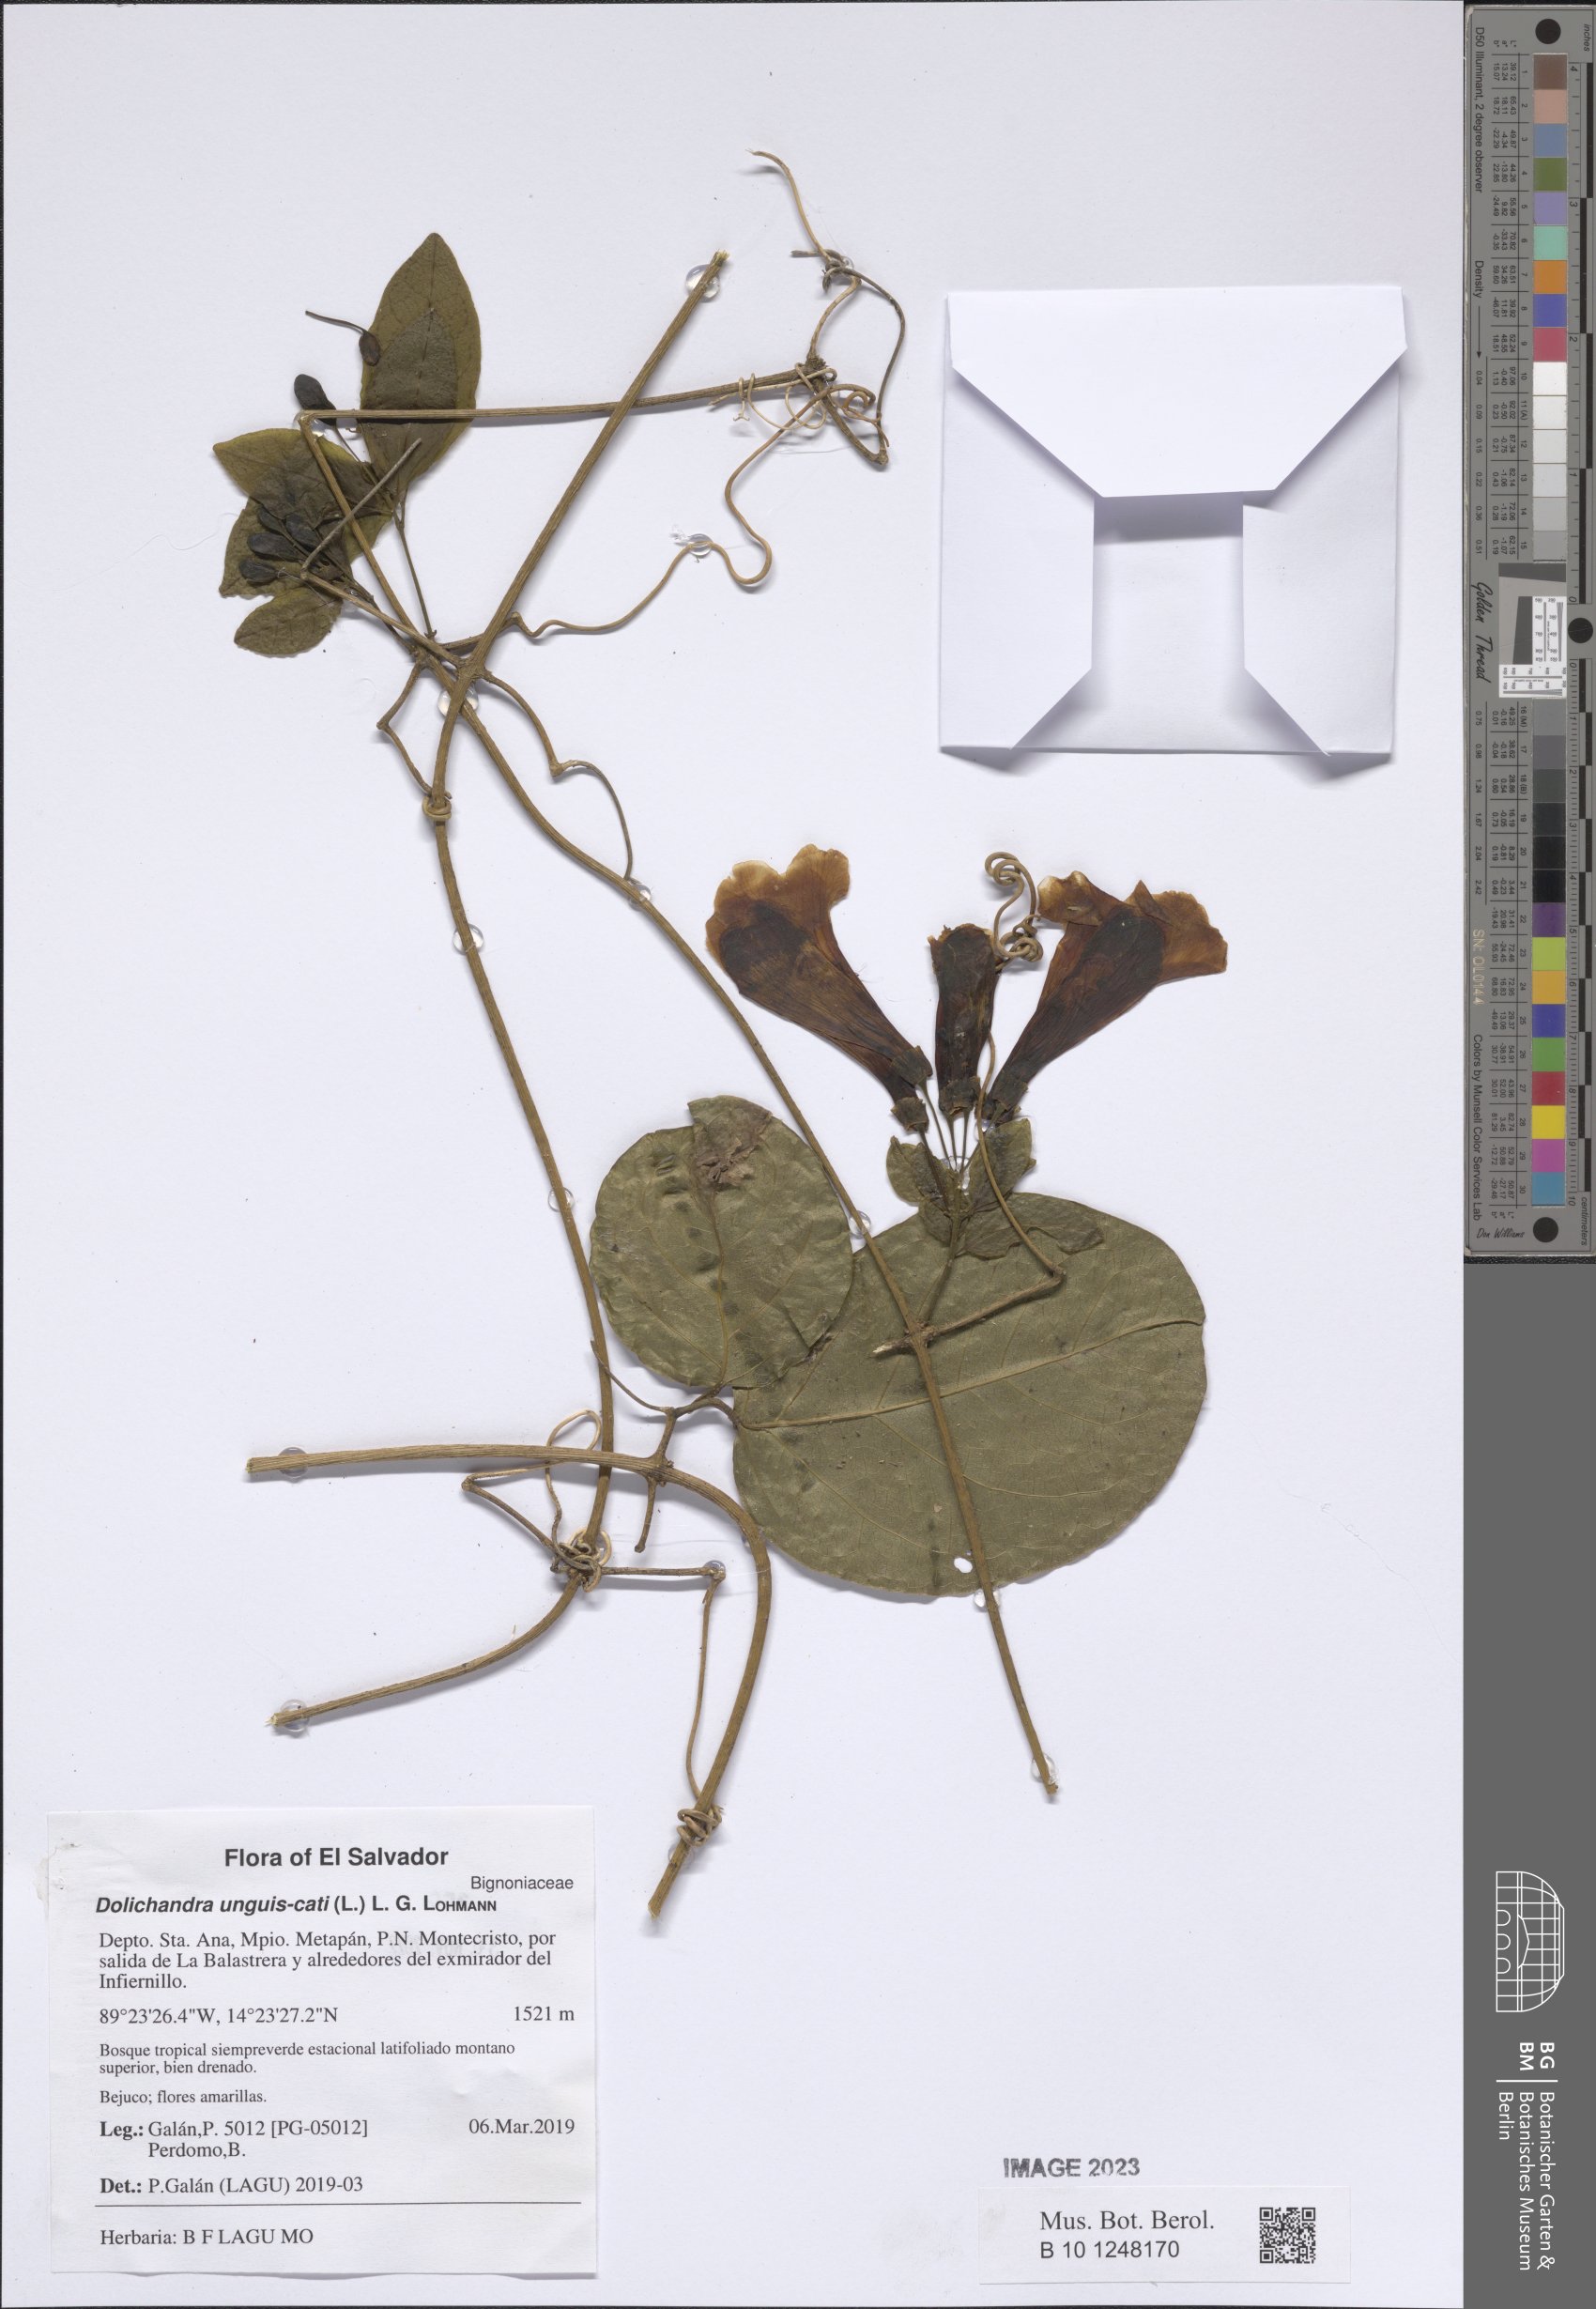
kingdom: Plantae
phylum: Tracheophyta
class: Magnoliopsida
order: Lamiales
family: Bignoniaceae
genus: Dolichandra
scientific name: Dolichandra unguis-cati
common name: Catclaw vine
